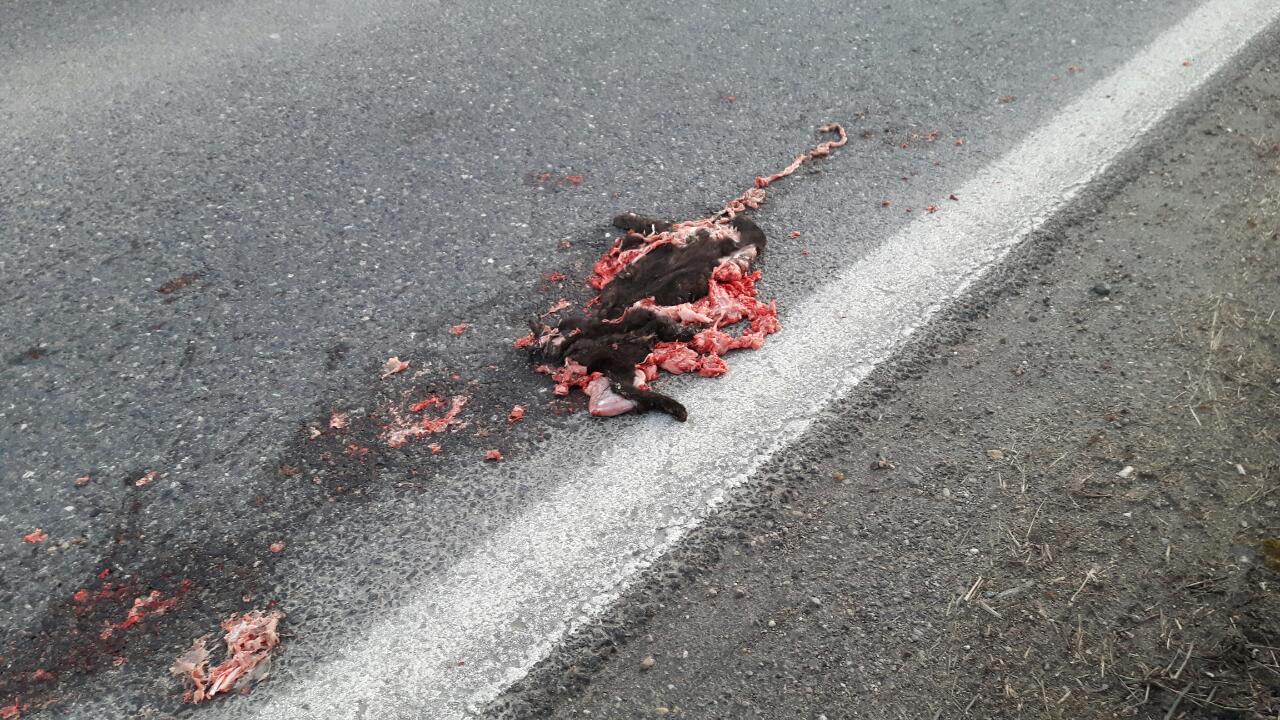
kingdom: Animalia
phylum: Chordata
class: Mammalia
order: Carnivora
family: Felidae
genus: Felis
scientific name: Felis catus
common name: Domestic cat
